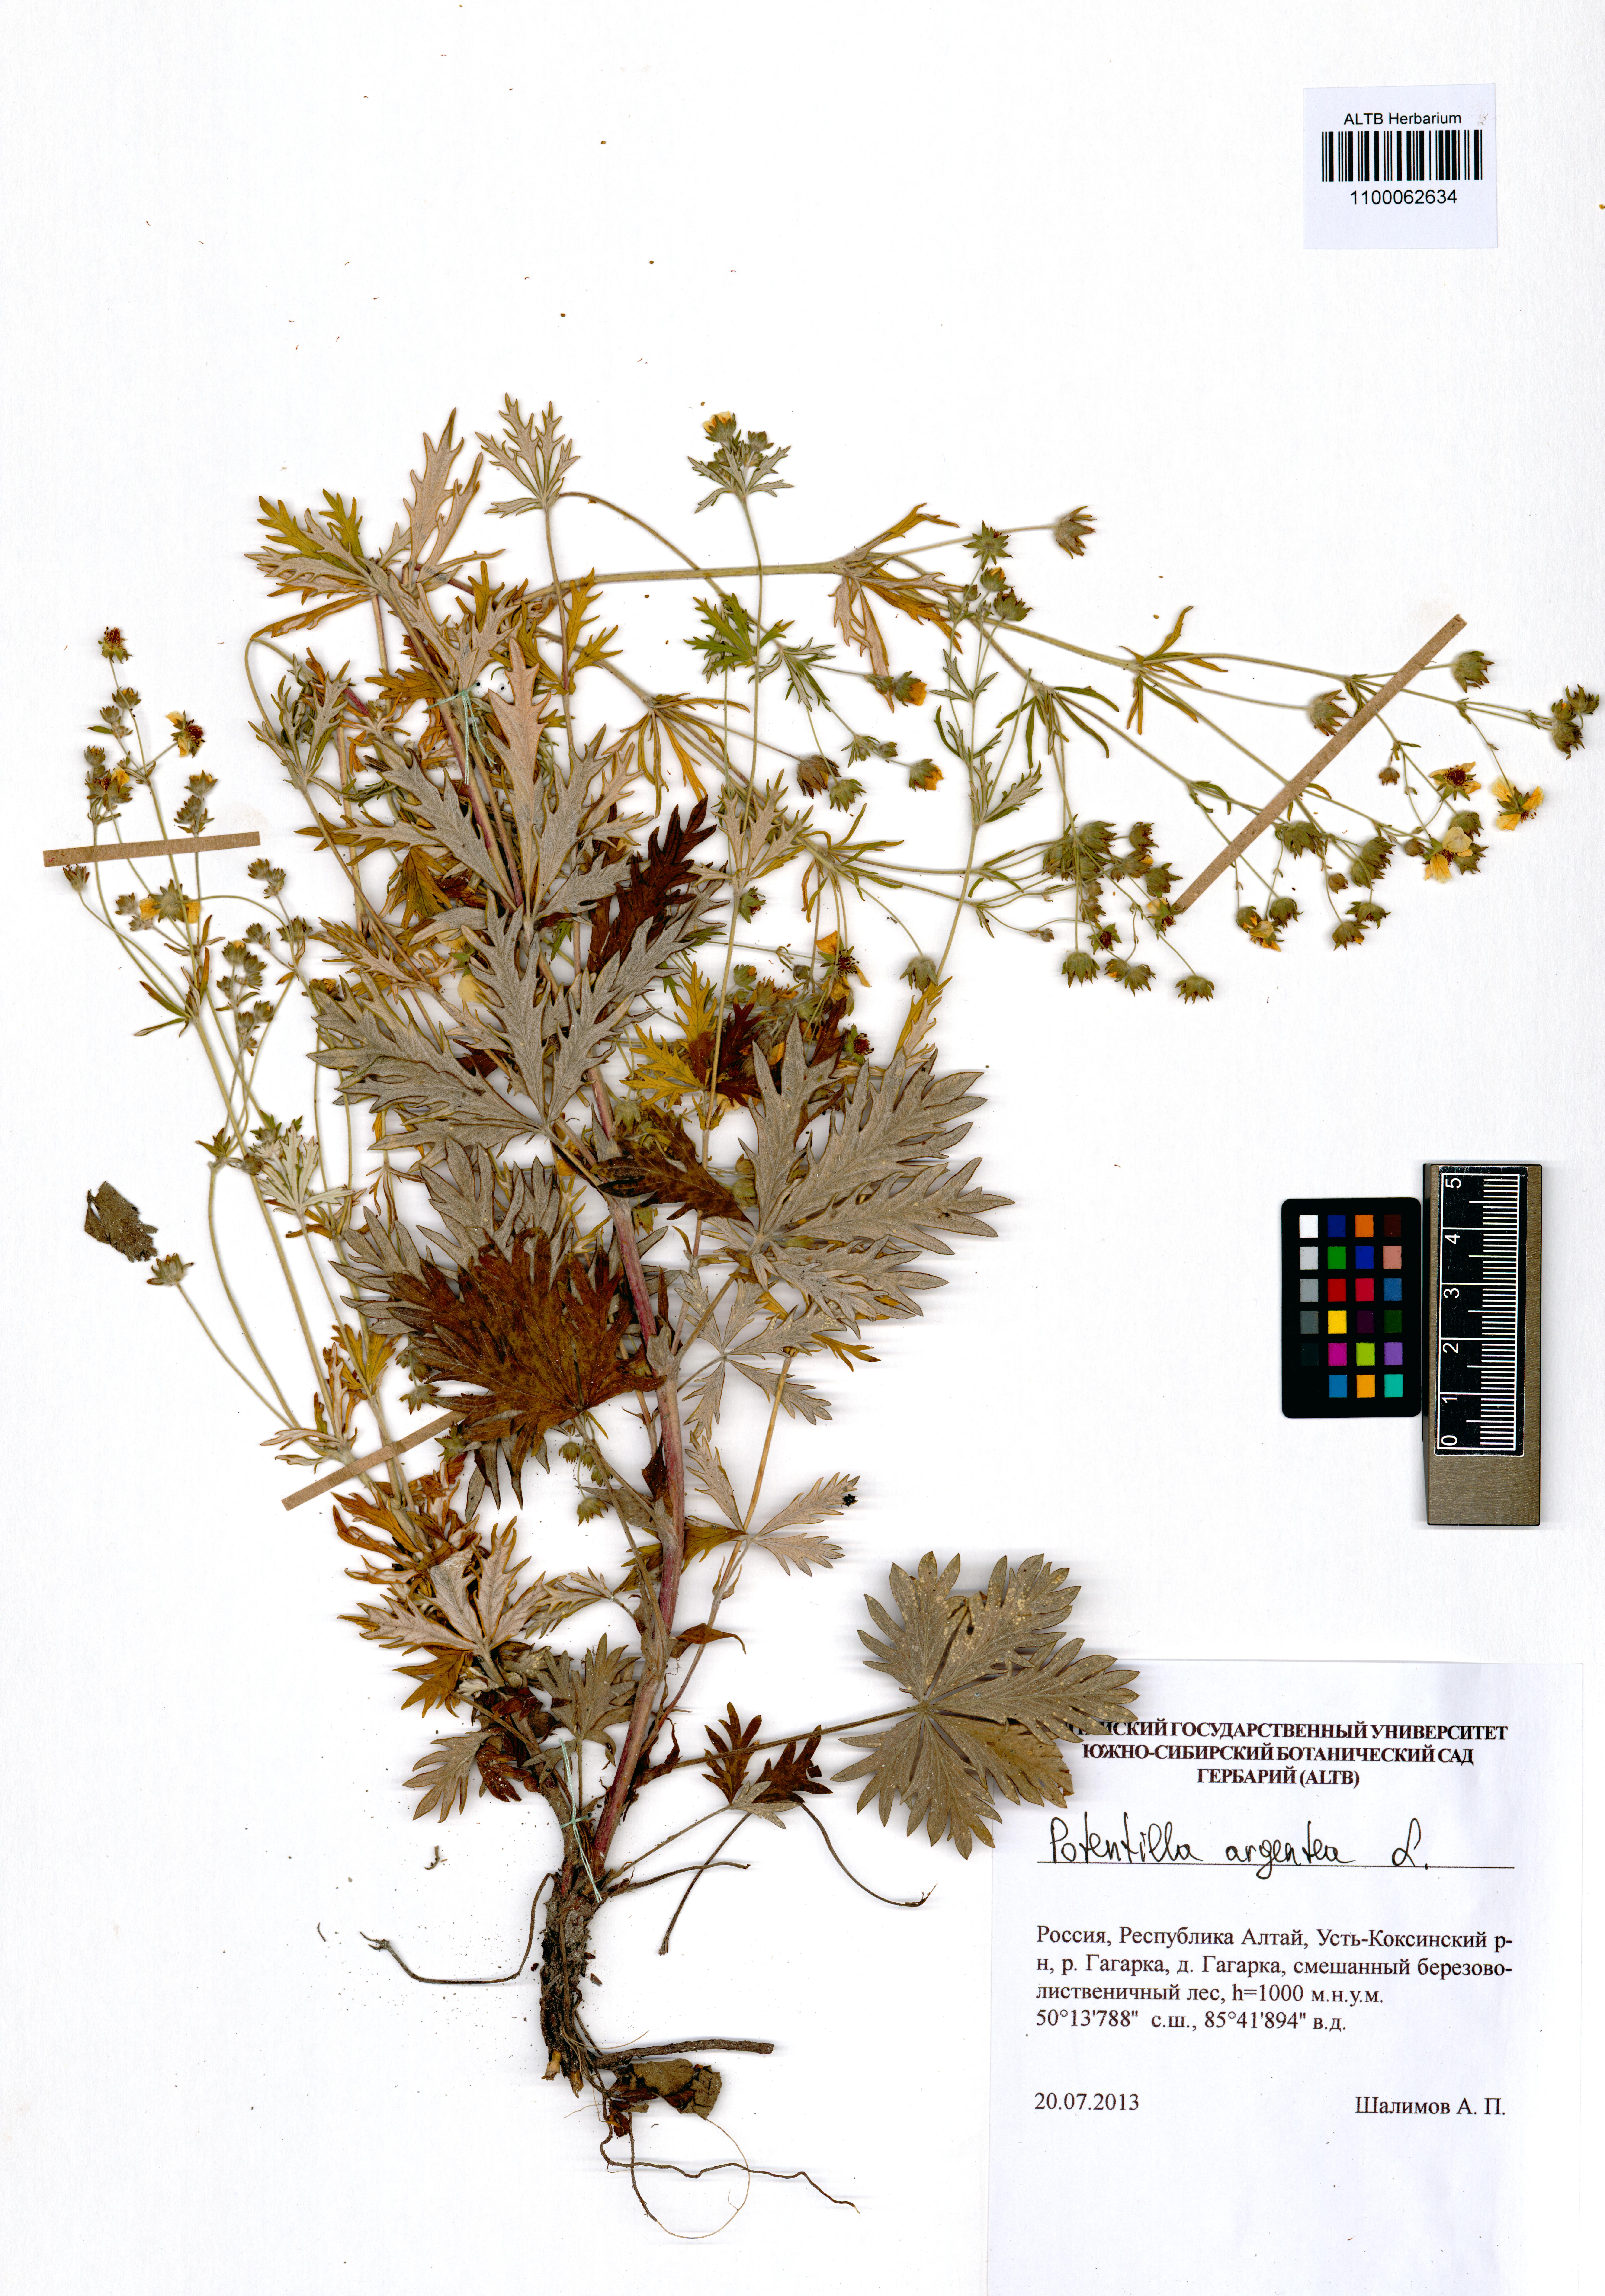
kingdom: Plantae
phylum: Tracheophyta
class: Magnoliopsida
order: Rosales
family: Rosaceae
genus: Potentilla
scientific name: Potentilla argentea
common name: Hoary cinquefoil
